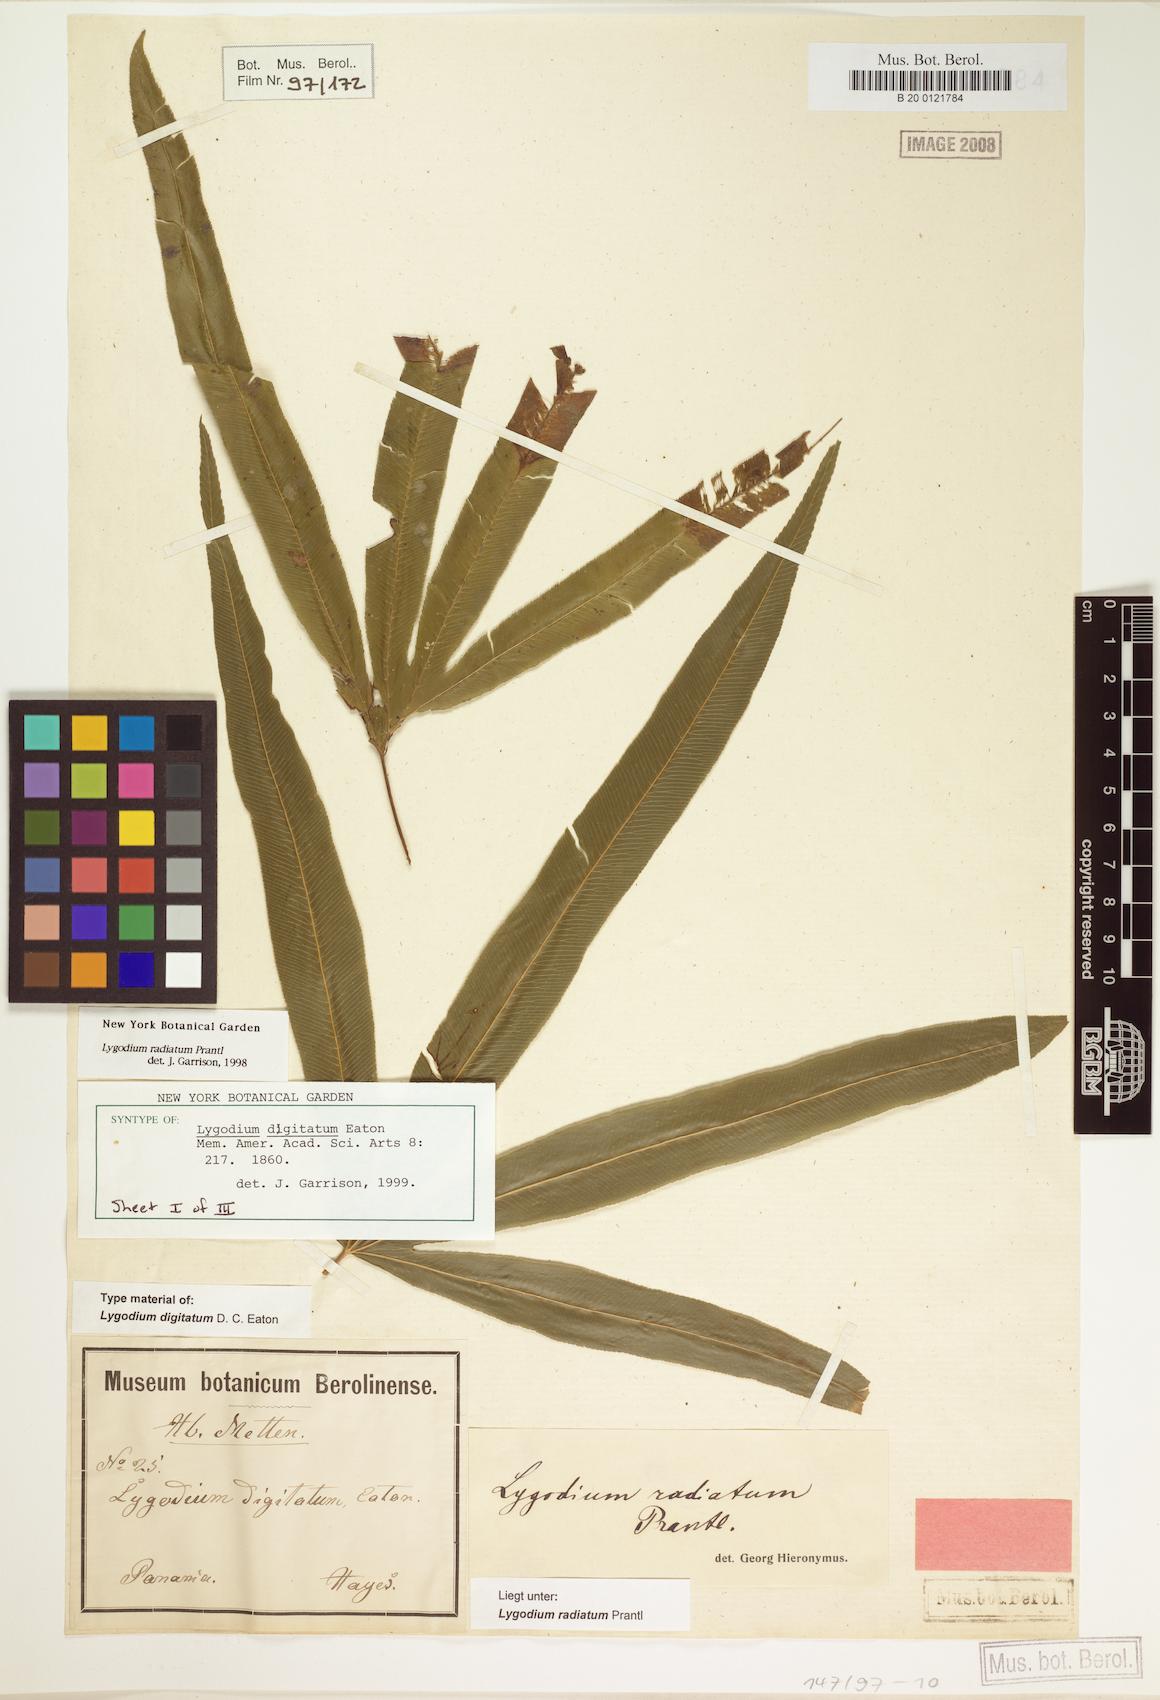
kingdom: Plantae
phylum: Tracheophyta
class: Polypodiopsida
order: Schizaeales
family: Lygodiaceae
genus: Lygodium
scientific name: Lygodium radiatum
